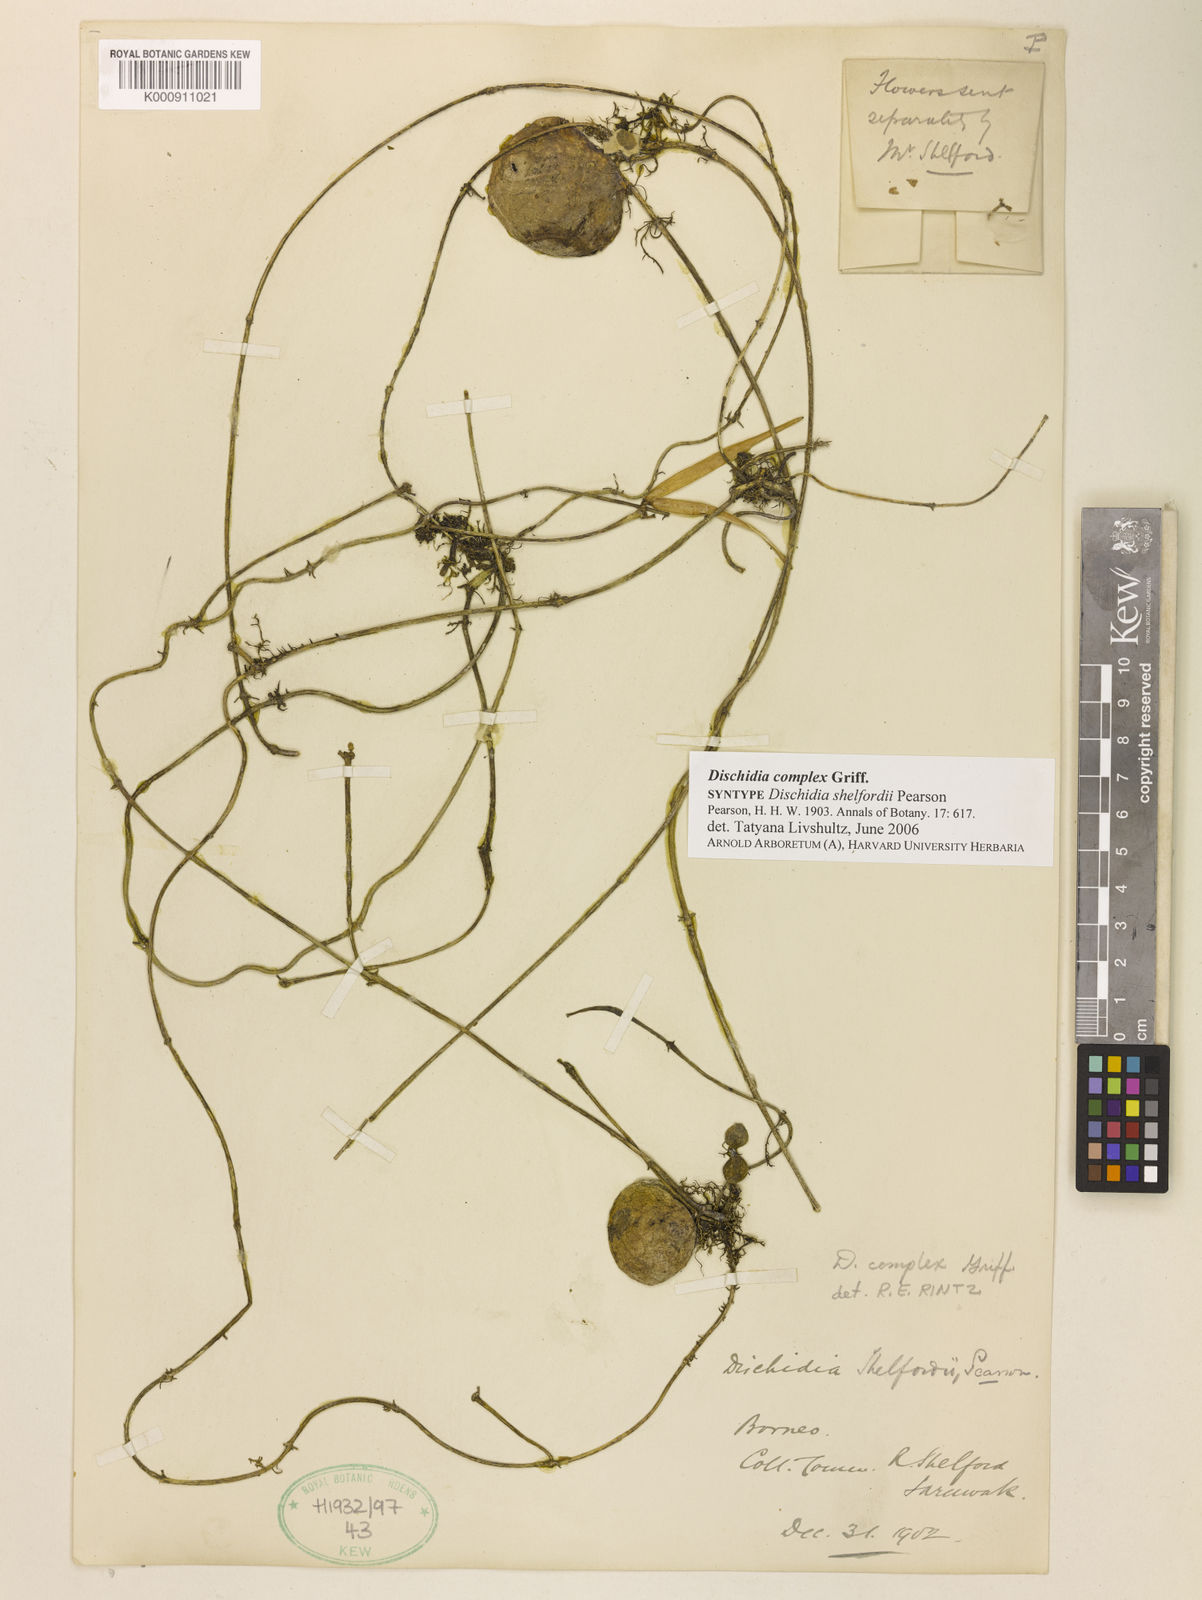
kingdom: Plantae
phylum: Tracheophyta
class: Magnoliopsida
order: Gentianales
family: Apocynaceae
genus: Dischidia
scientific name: Dischidia complex
